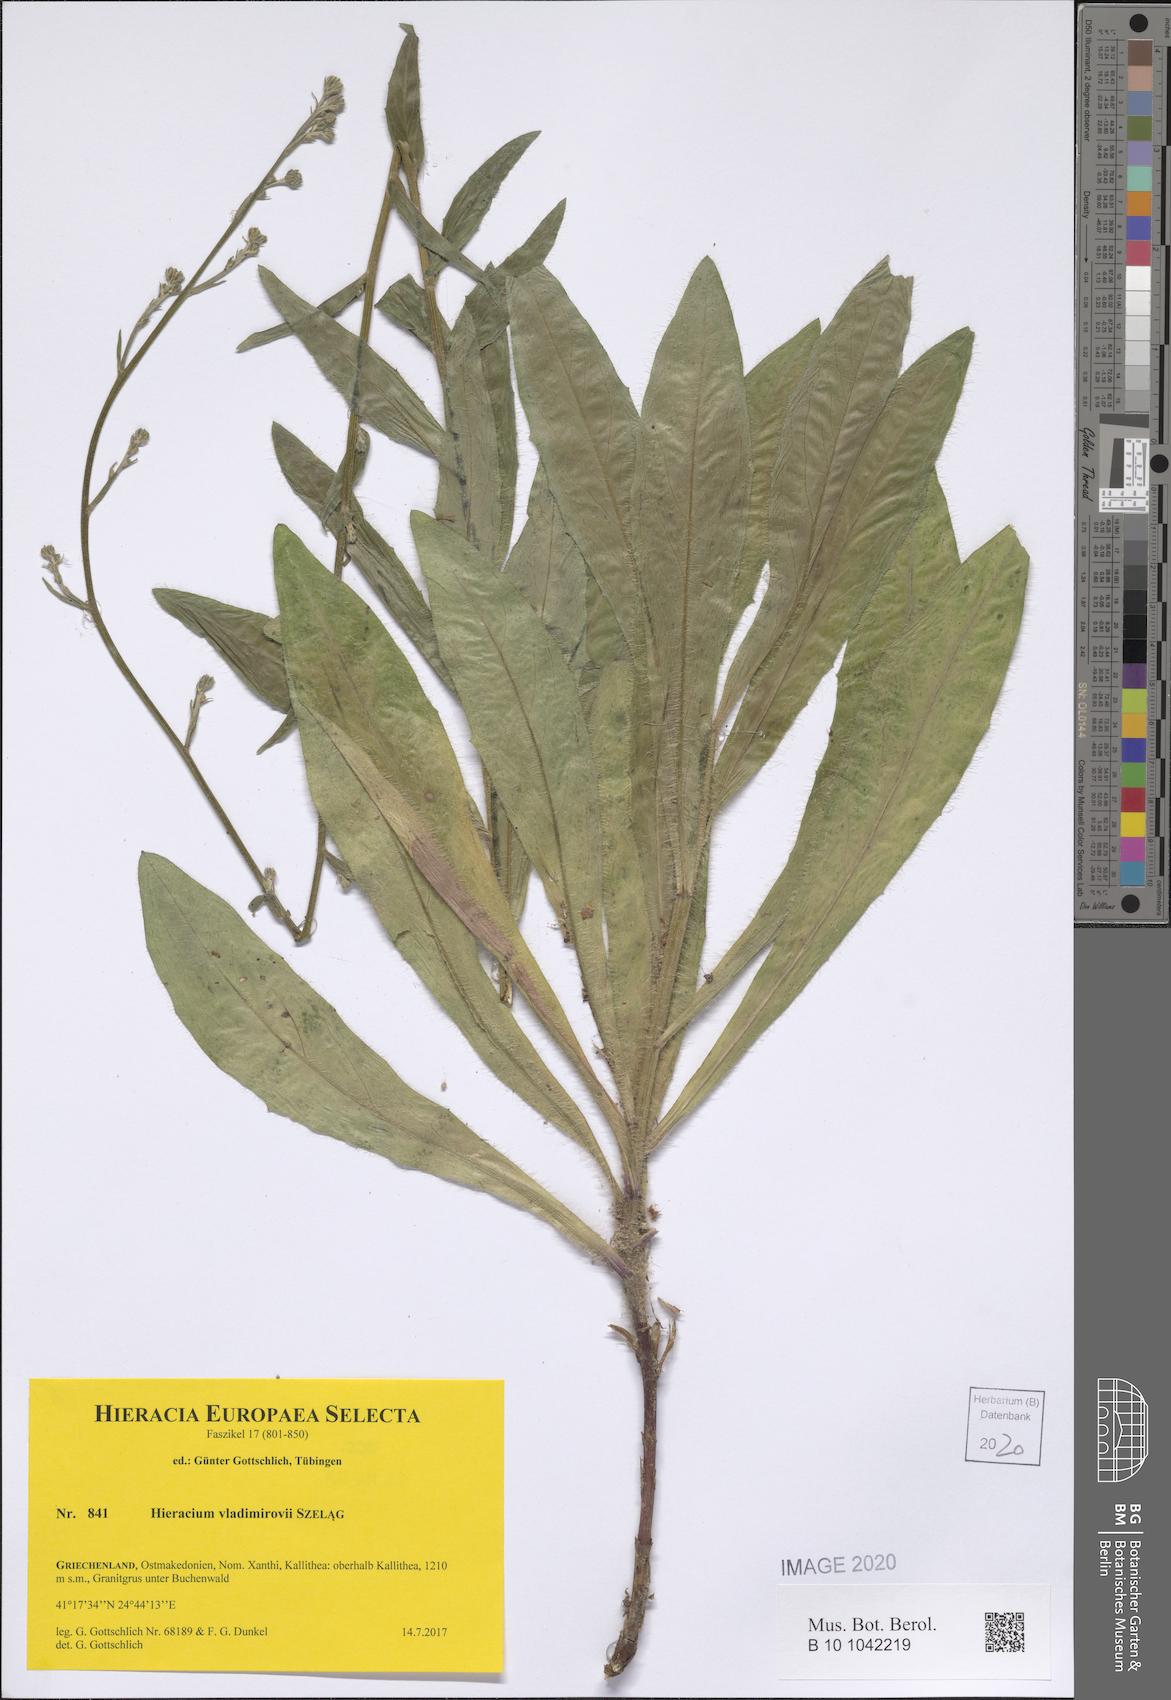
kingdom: Plantae
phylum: Tracheophyta
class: Magnoliopsida
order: Asterales
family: Asteraceae
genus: Hieracium
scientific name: Hieracium vladimirovii
